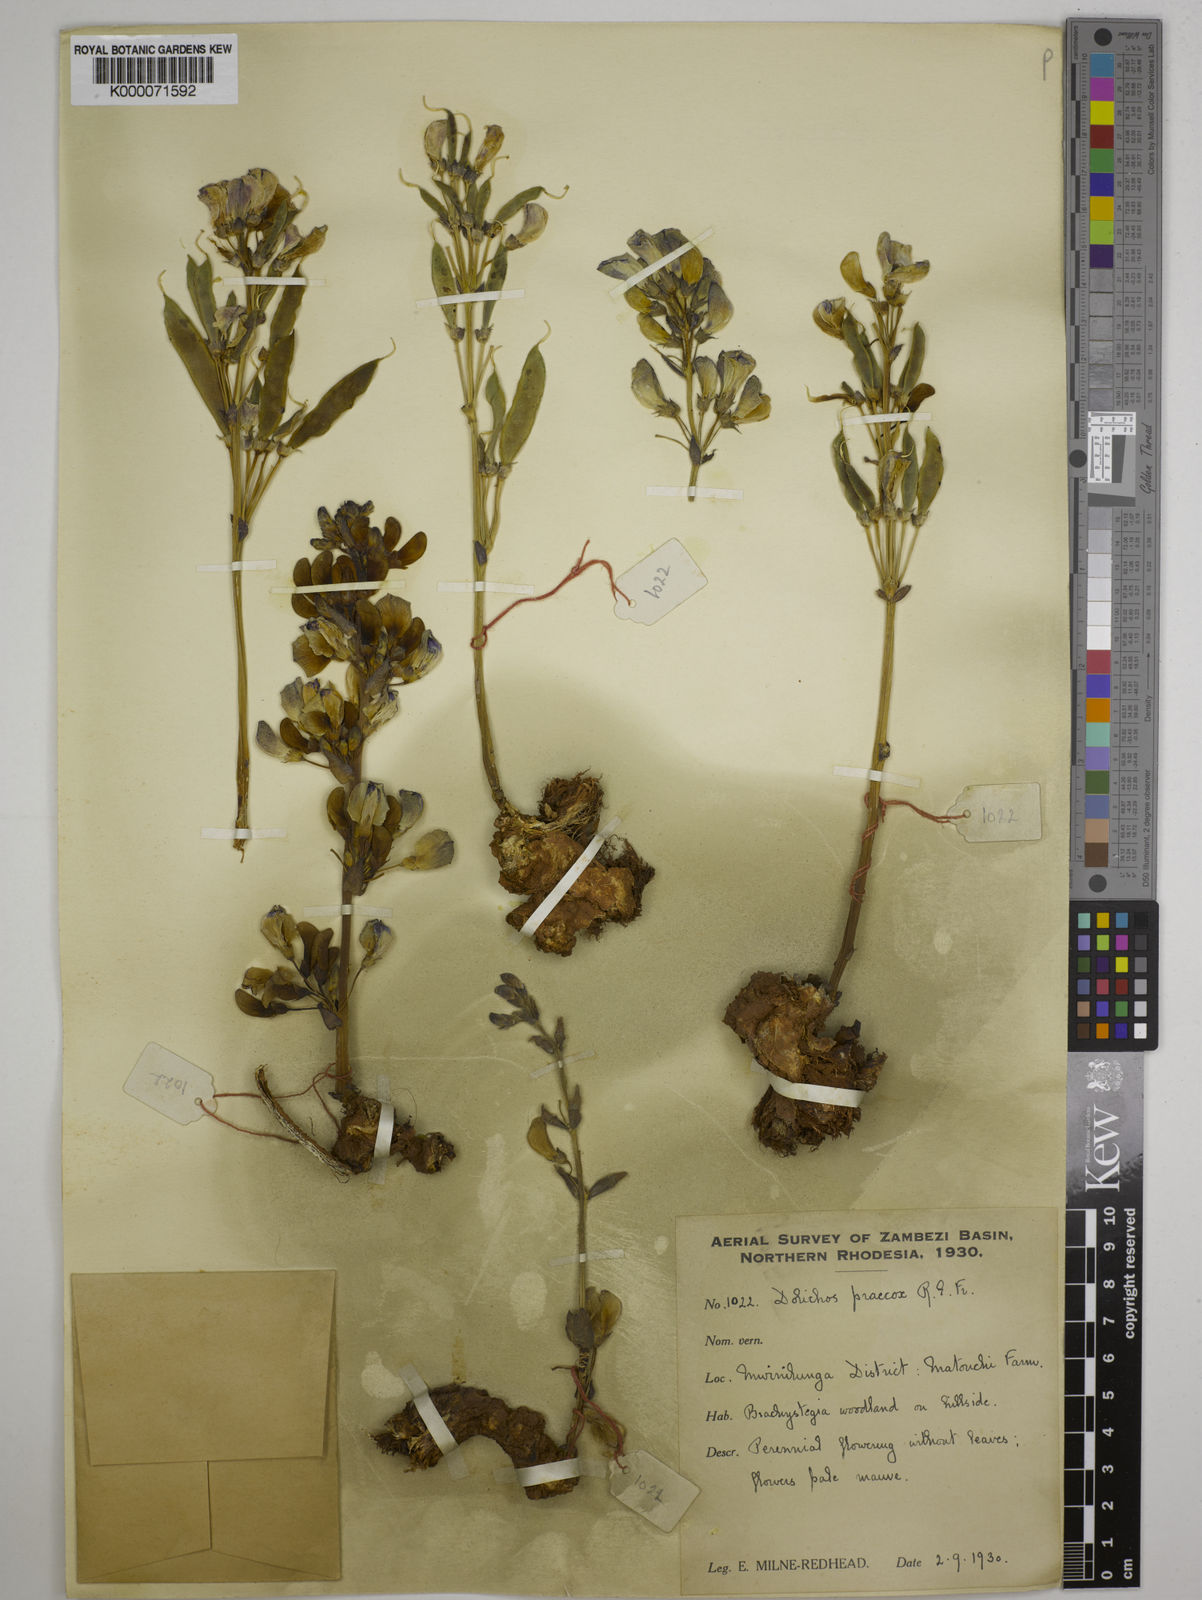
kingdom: Plantae
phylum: Tracheophyta
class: Magnoliopsida
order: Fabales
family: Fabaceae
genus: Dolichos
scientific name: Dolichos gululu
